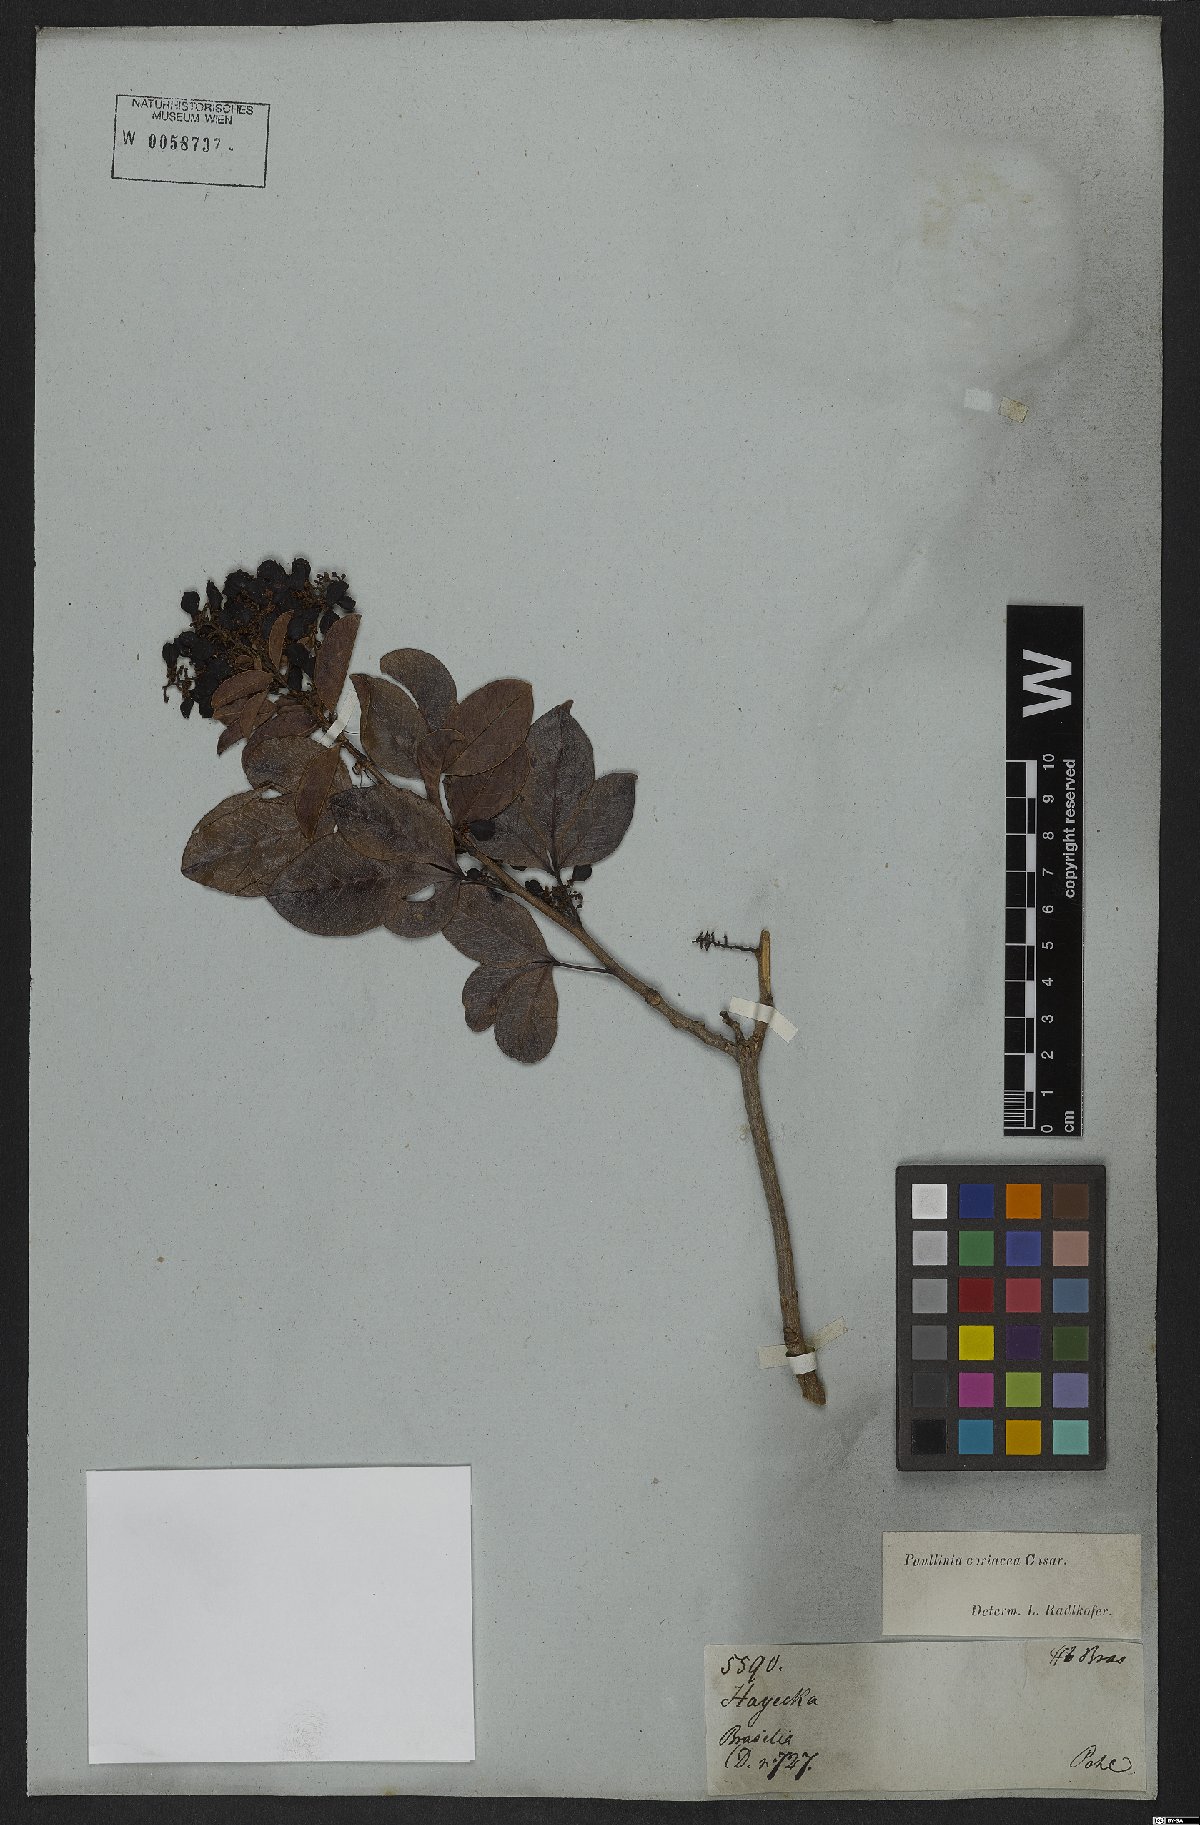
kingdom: Plantae
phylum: Tracheophyta
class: Magnoliopsida
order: Sapindales
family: Sapindaceae
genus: Paullinia
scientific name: Paullinia coriacea
